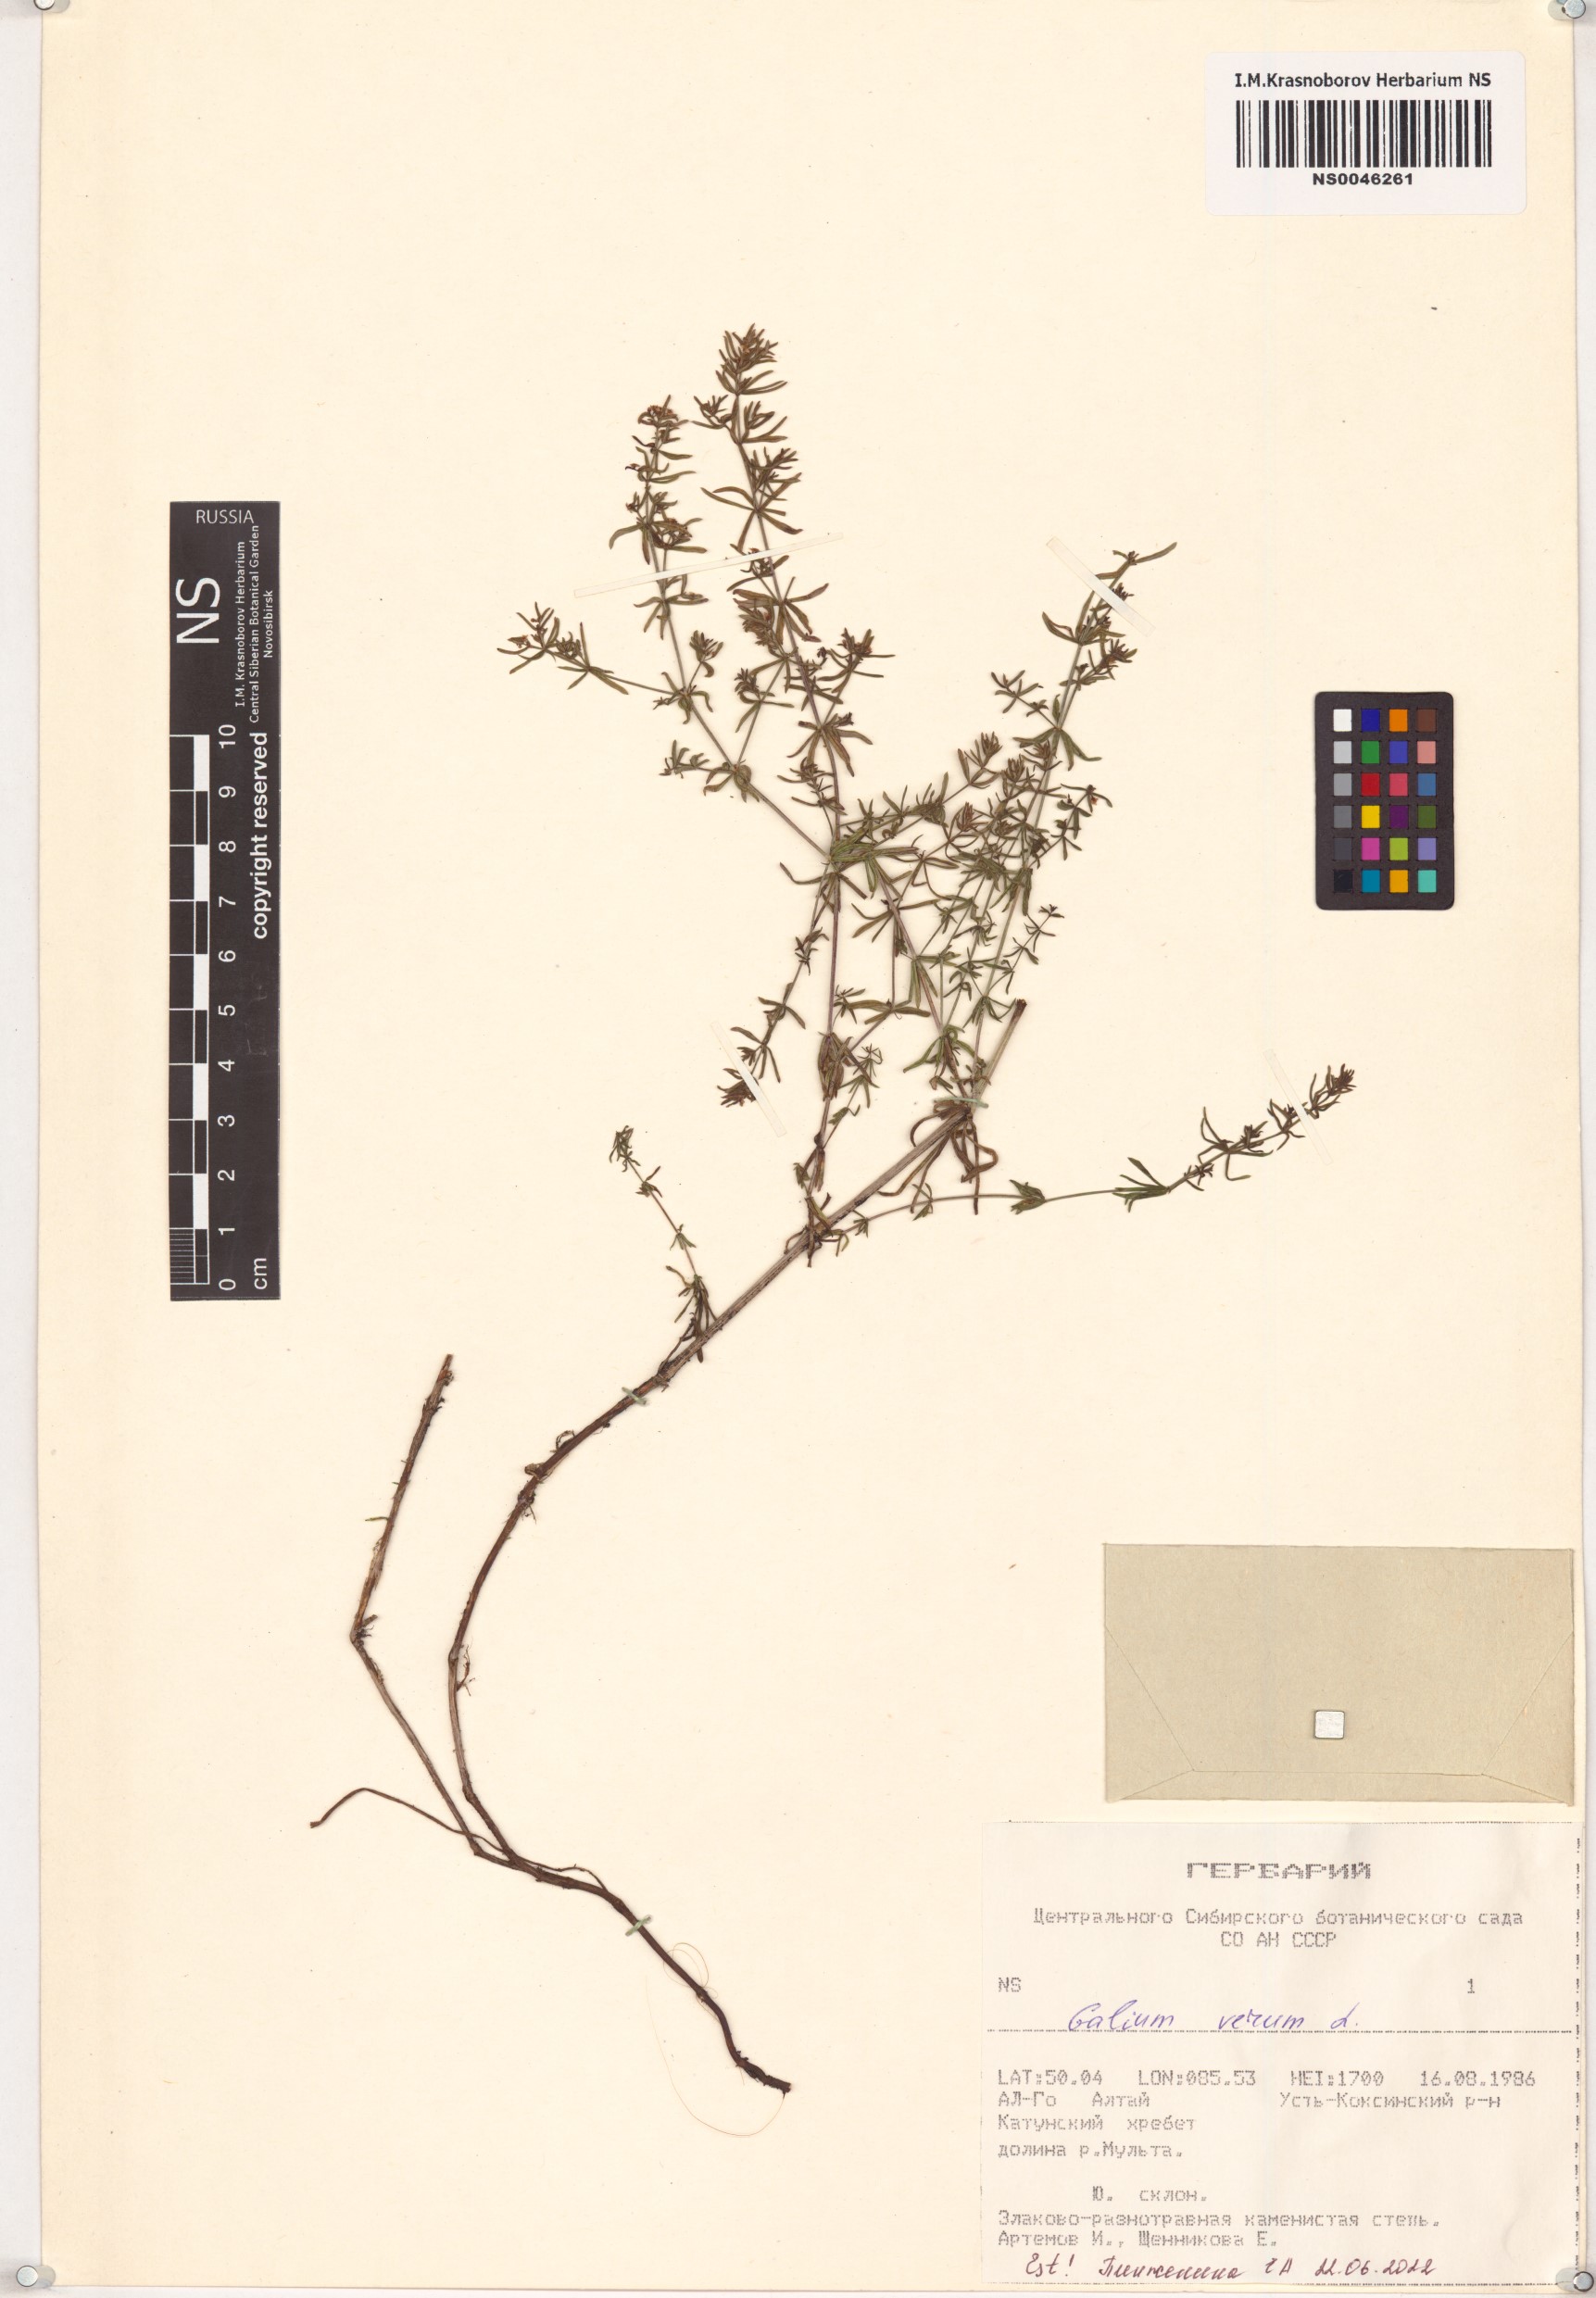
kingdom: Plantae
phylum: Tracheophyta
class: Magnoliopsida
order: Gentianales
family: Rubiaceae
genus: Galium
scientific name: Galium verum
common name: Lady's bedstraw
